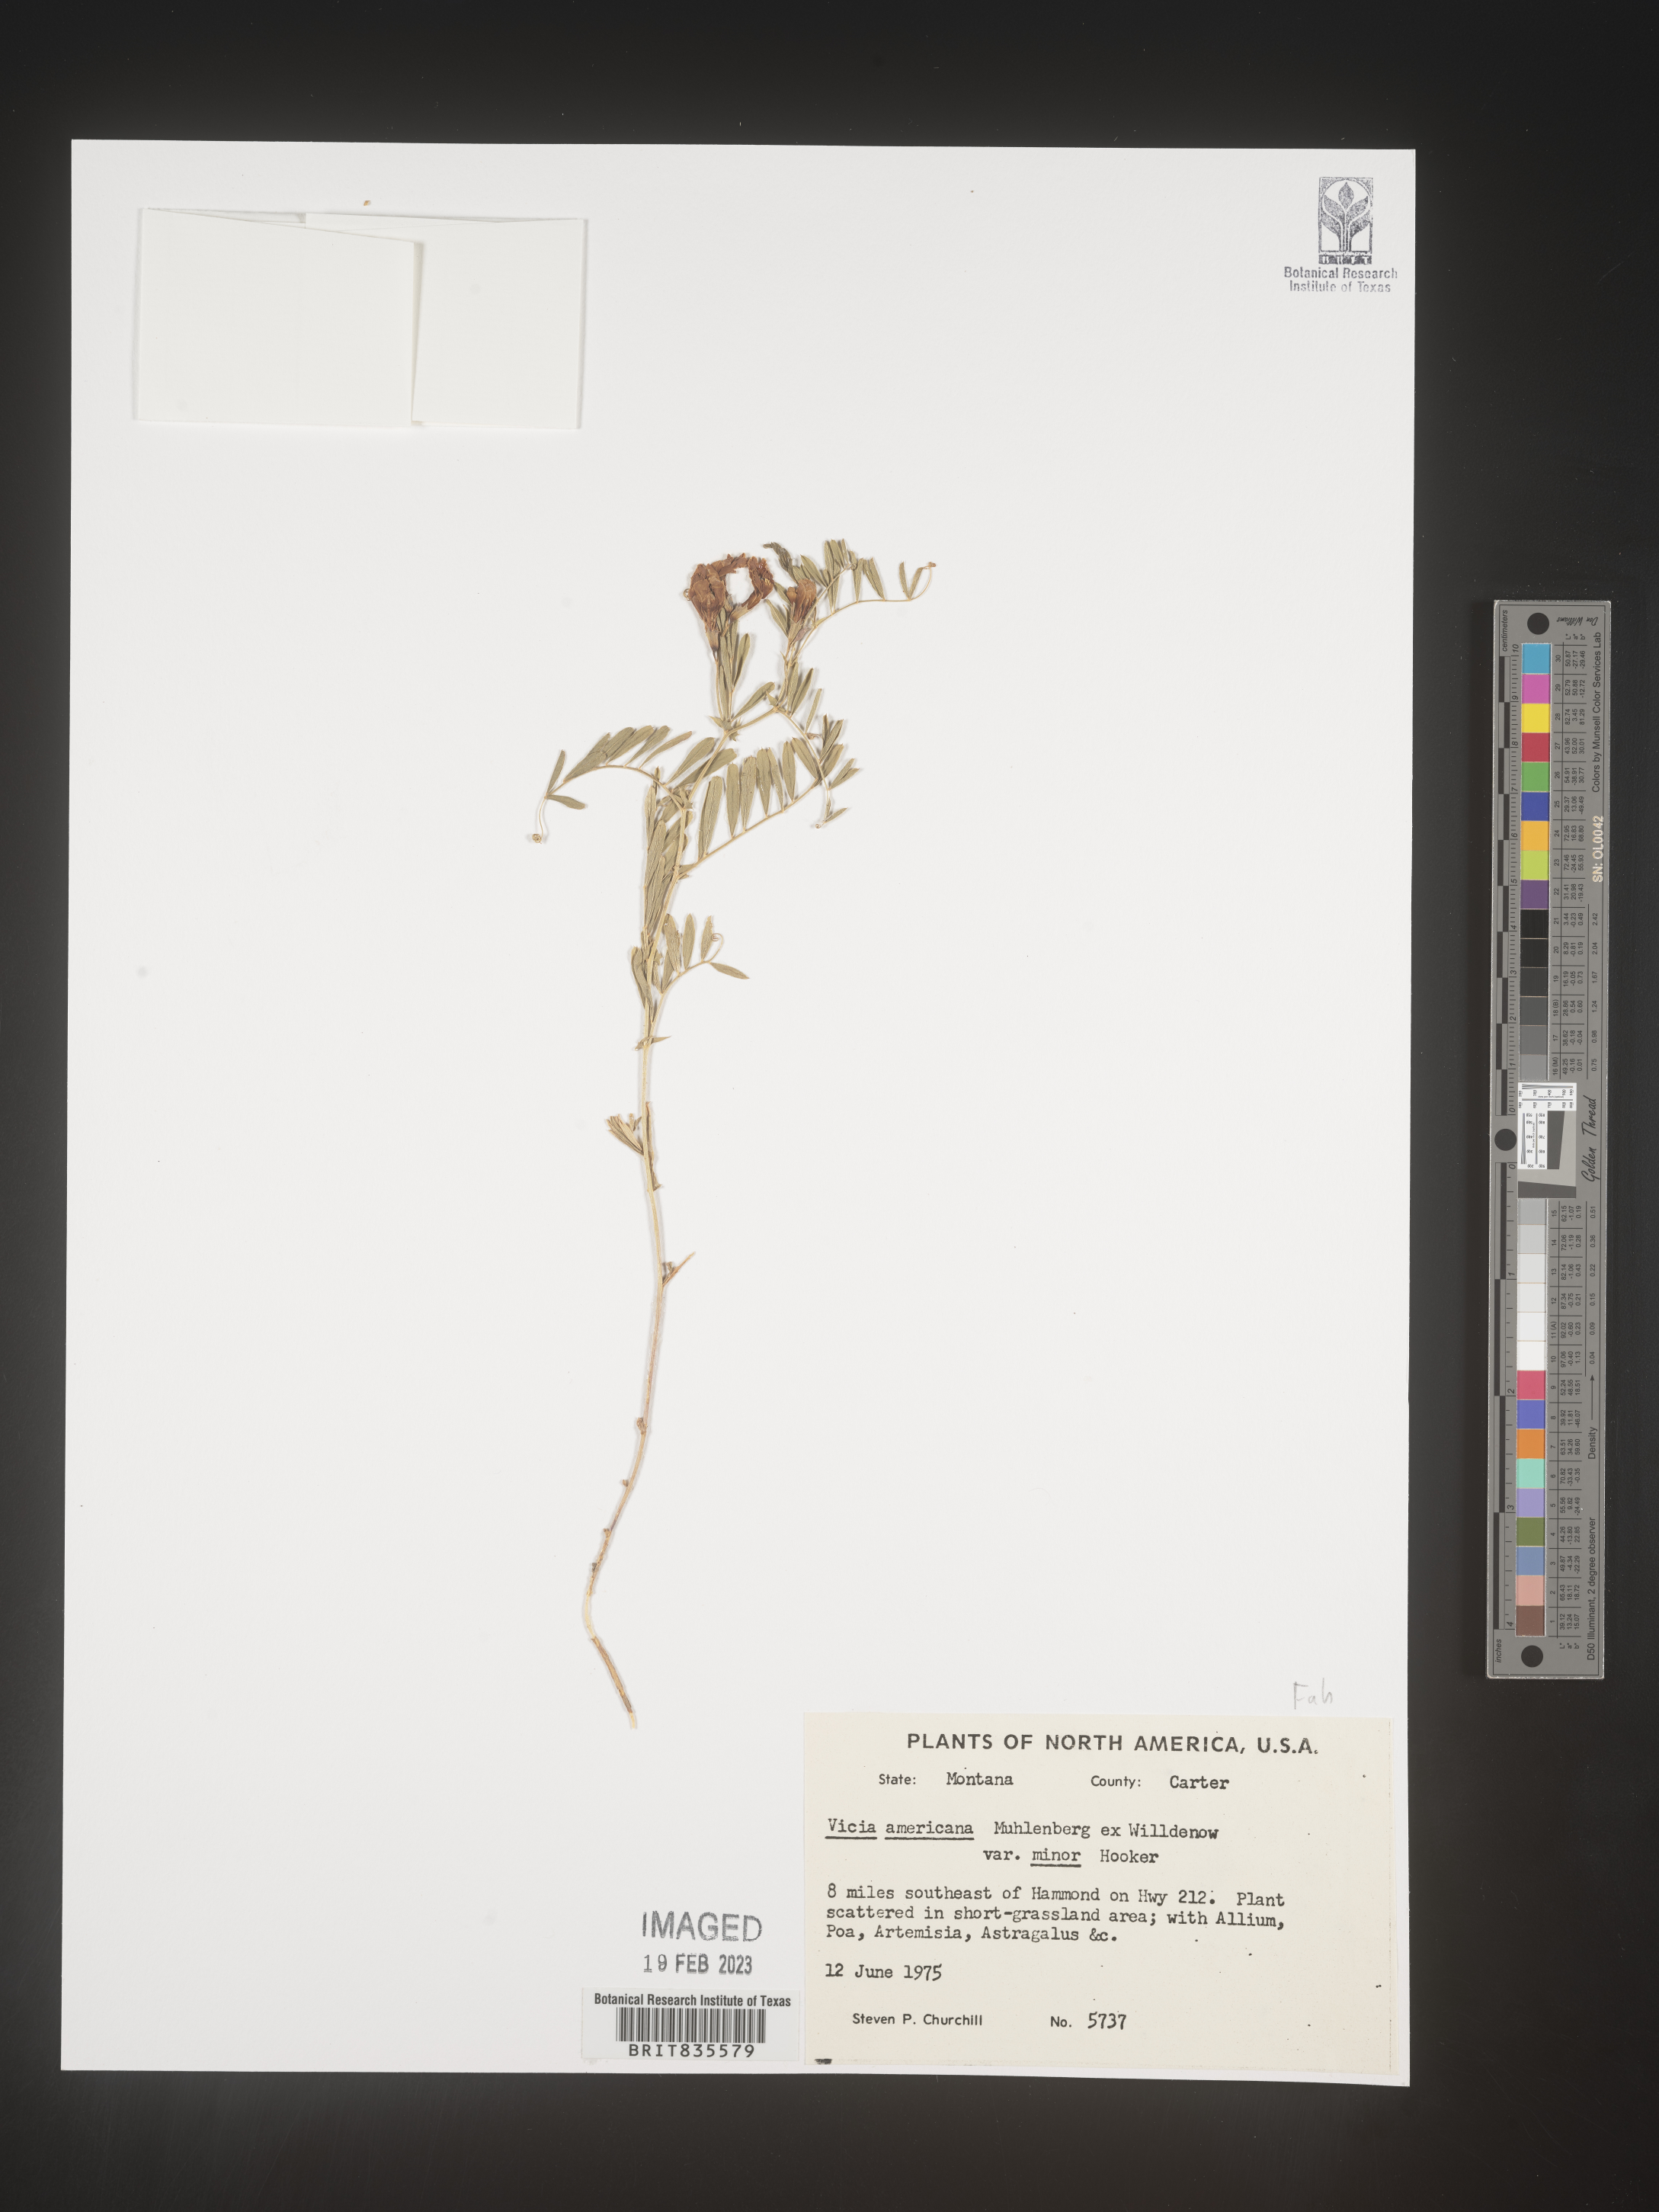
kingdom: Plantae
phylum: Tracheophyta
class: Magnoliopsida
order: Fabales
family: Fabaceae
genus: Vicia
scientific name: Vicia americana
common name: American vetch
